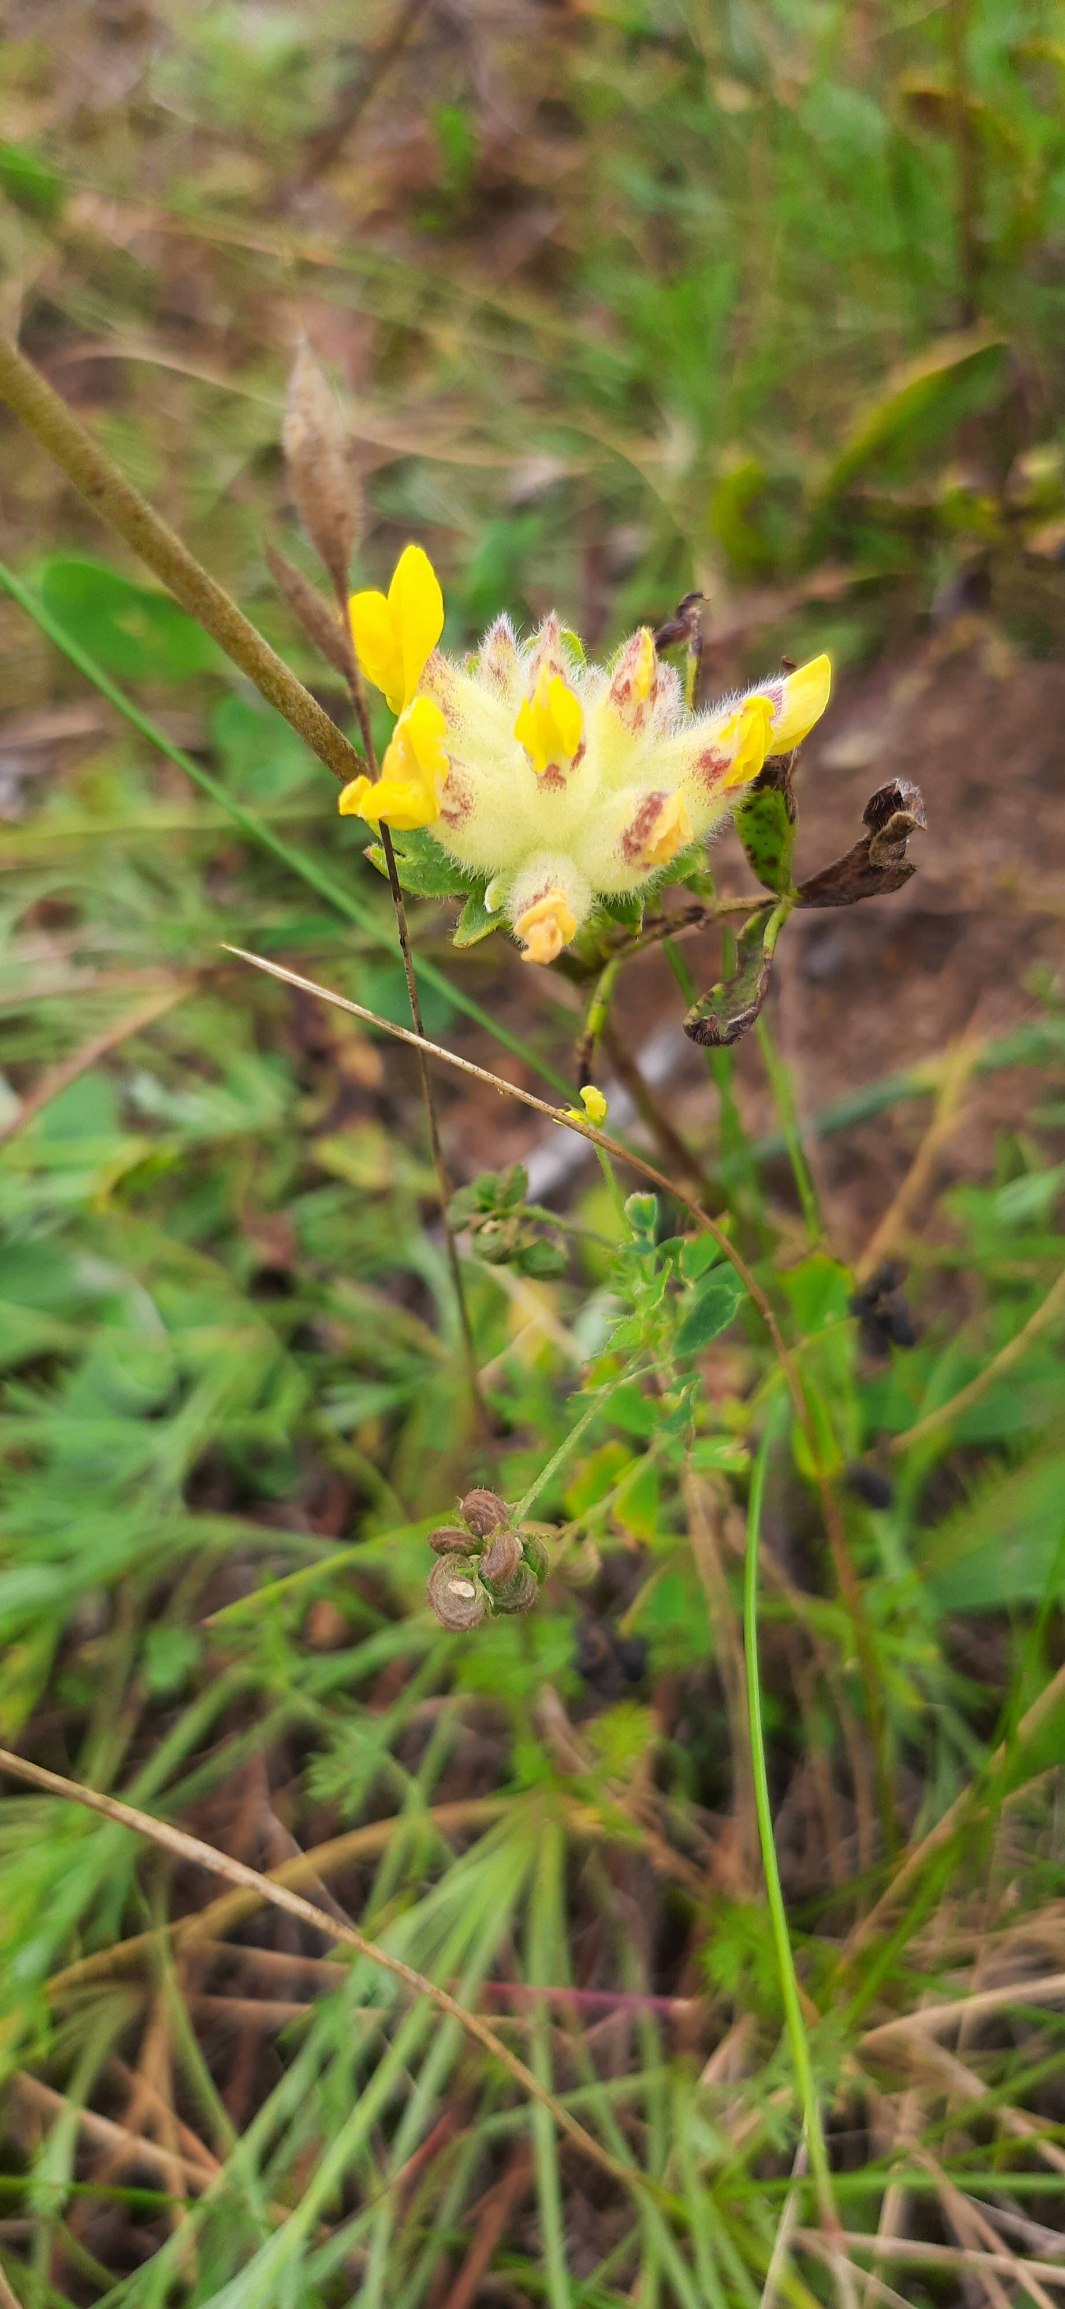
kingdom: Plantae
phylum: Tracheophyta
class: Magnoliopsida
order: Fabales
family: Fabaceae
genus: Anthyllis
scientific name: Anthyllis vulneraria
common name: Rundbælg
